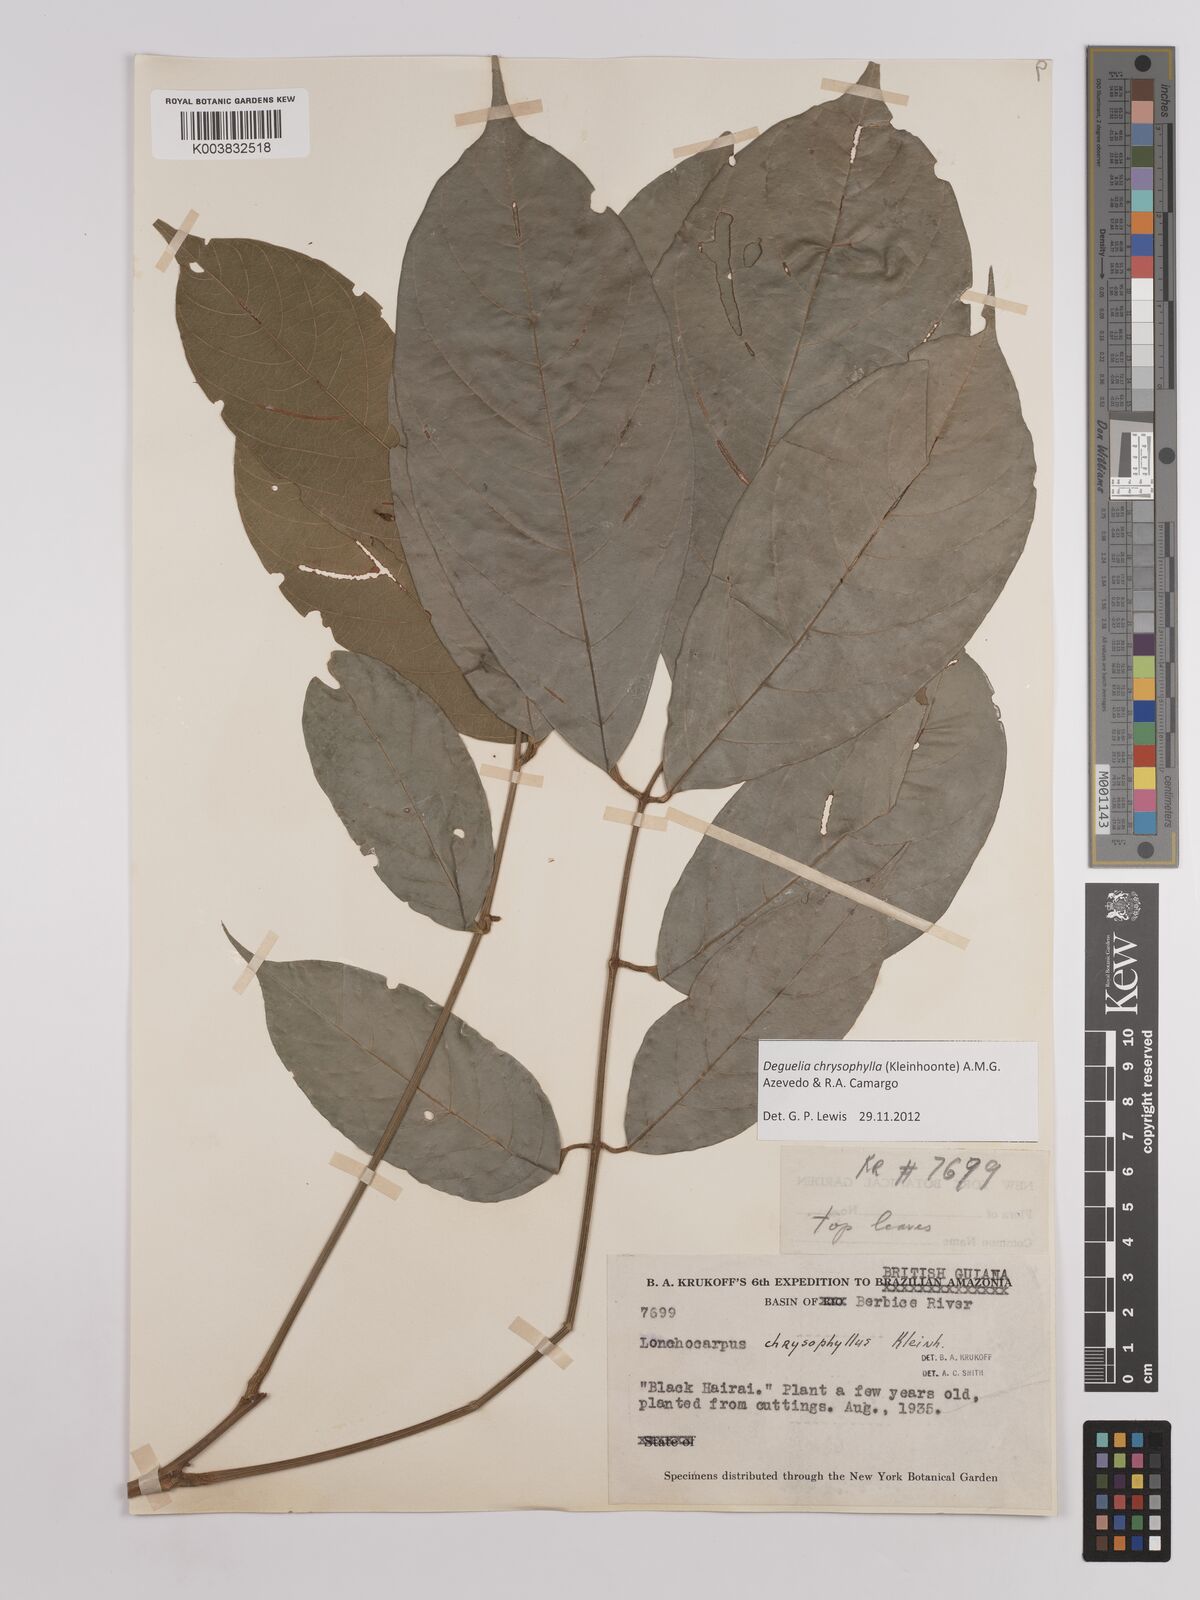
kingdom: Plantae
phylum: Tracheophyta
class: Magnoliopsida
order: Fabales
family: Fabaceae
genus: Deguelia
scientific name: Deguelia chrysophylla
